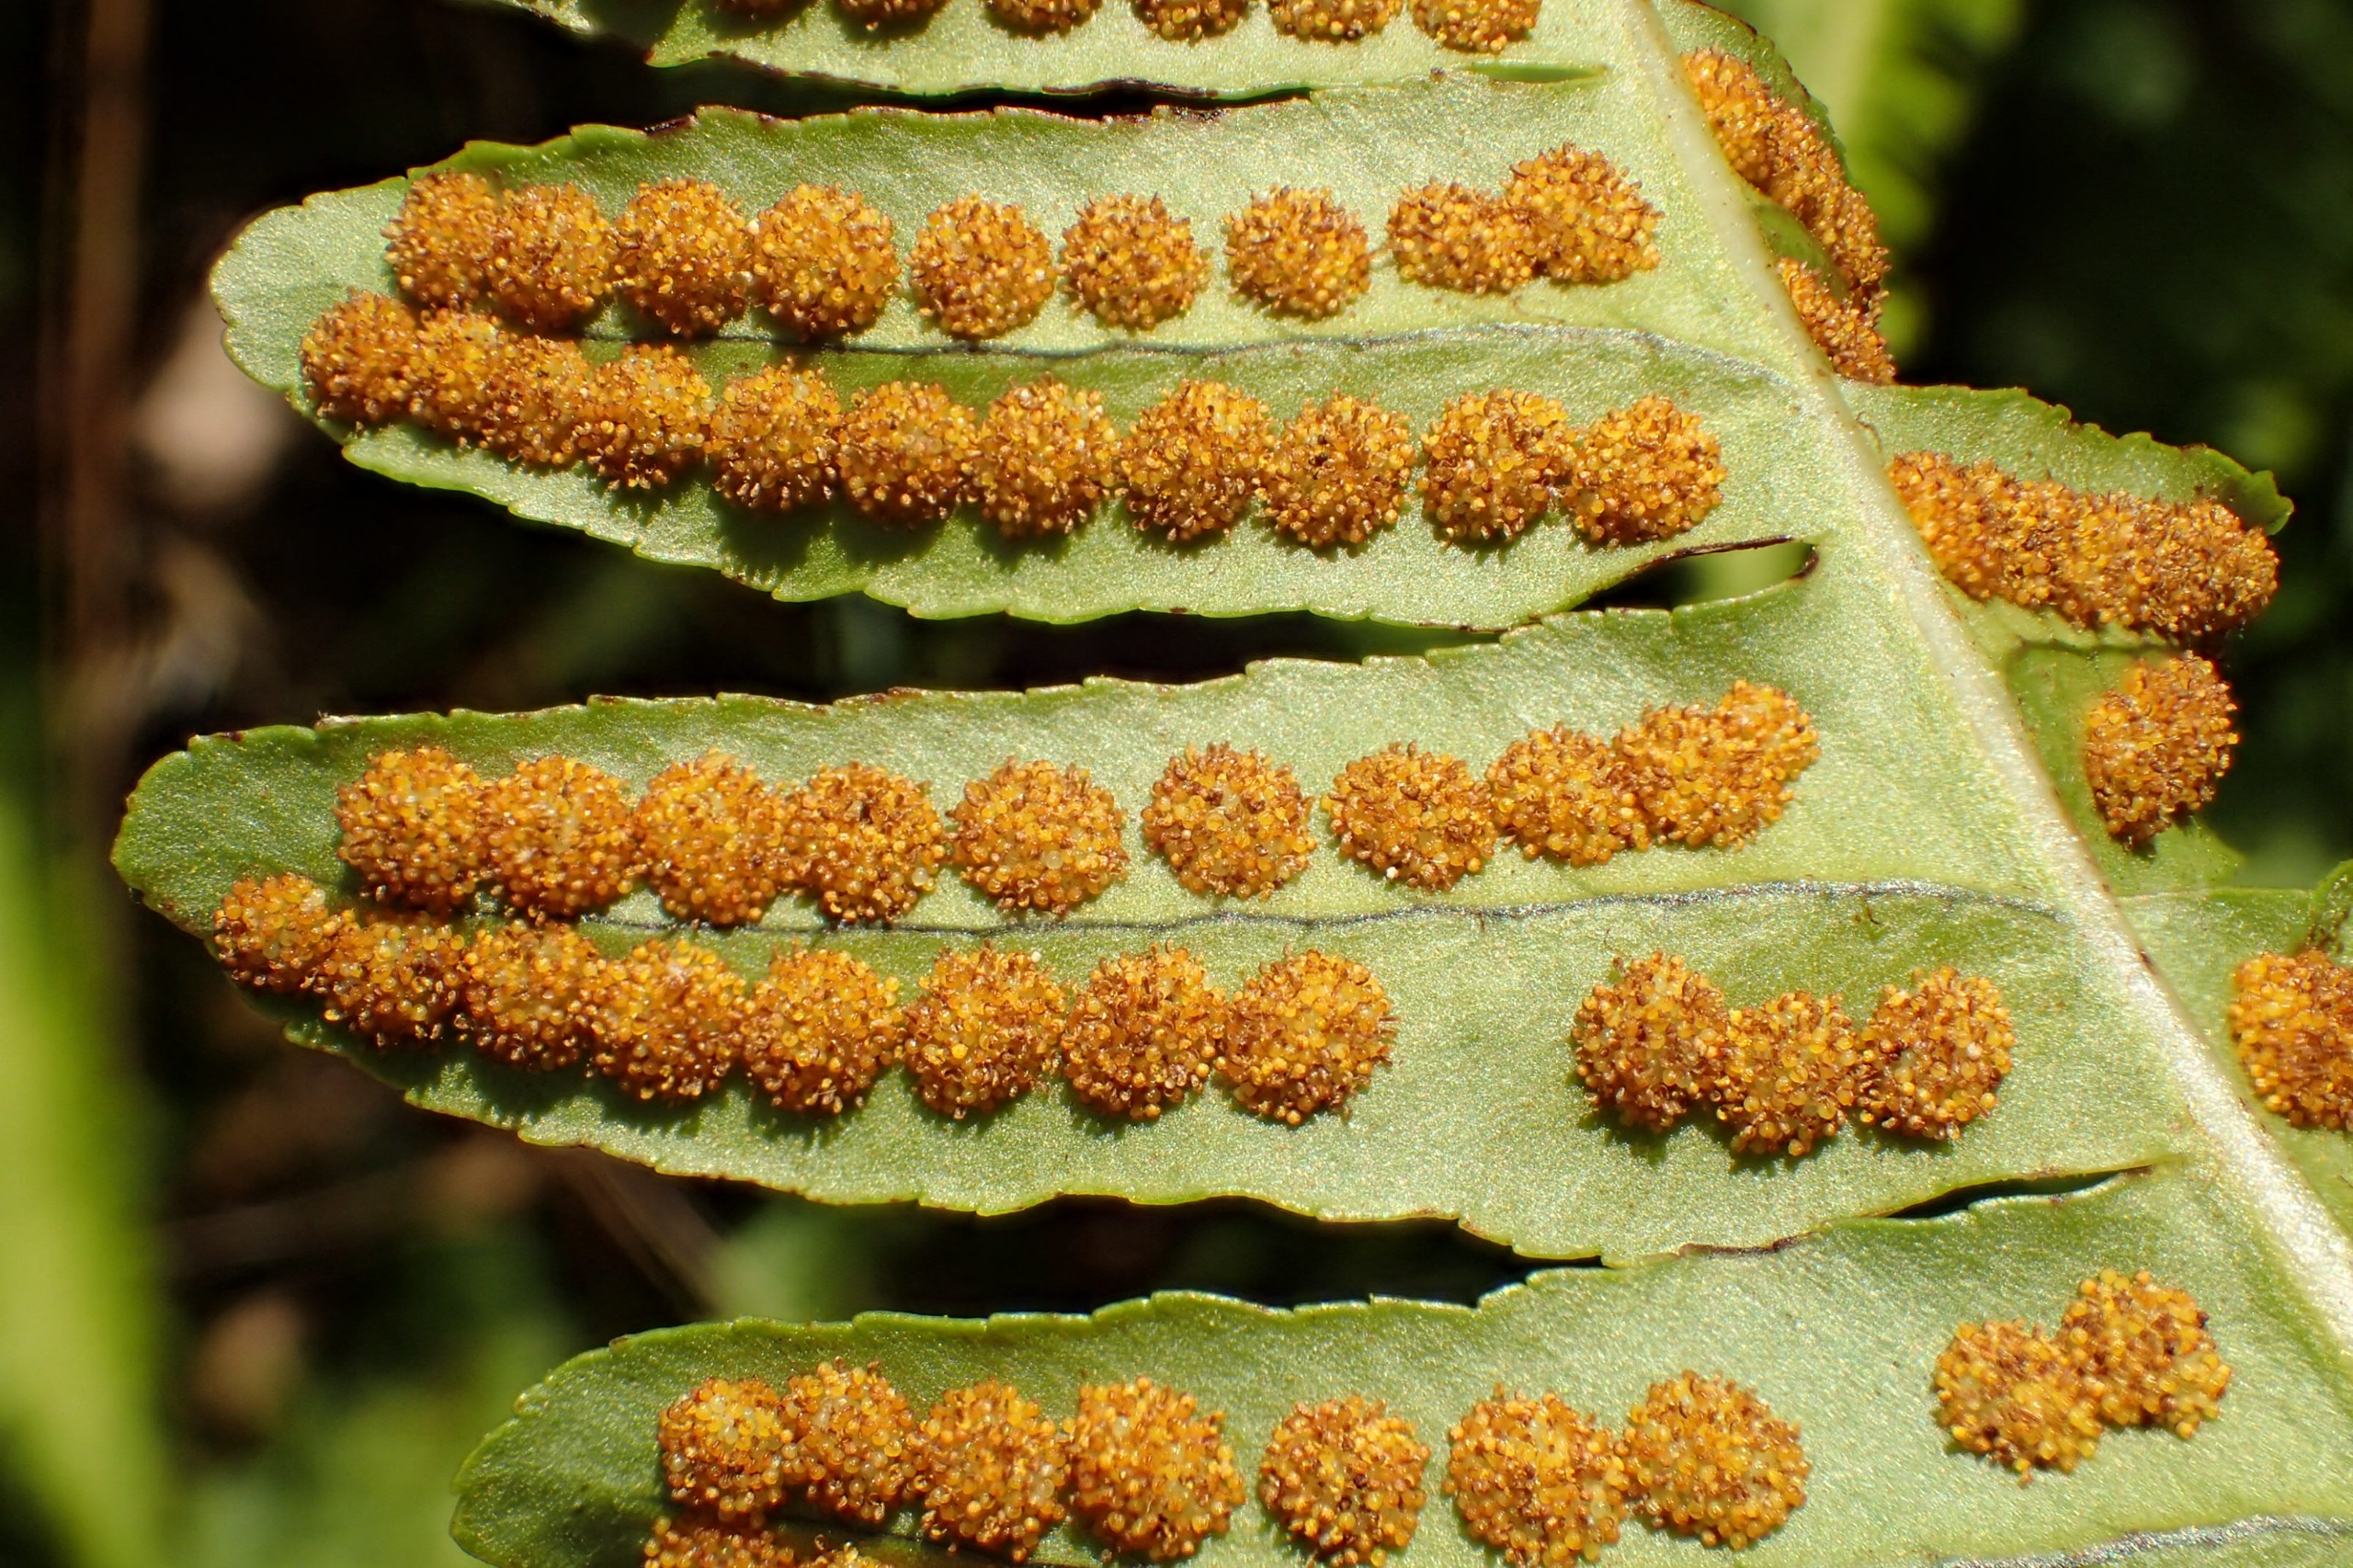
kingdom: Plantae
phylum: Tracheophyta
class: Polypodiopsida
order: Polypodiales
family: Polypodiaceae
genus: Polypodium
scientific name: Polypodium vulgare
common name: Almindelig engelsød
